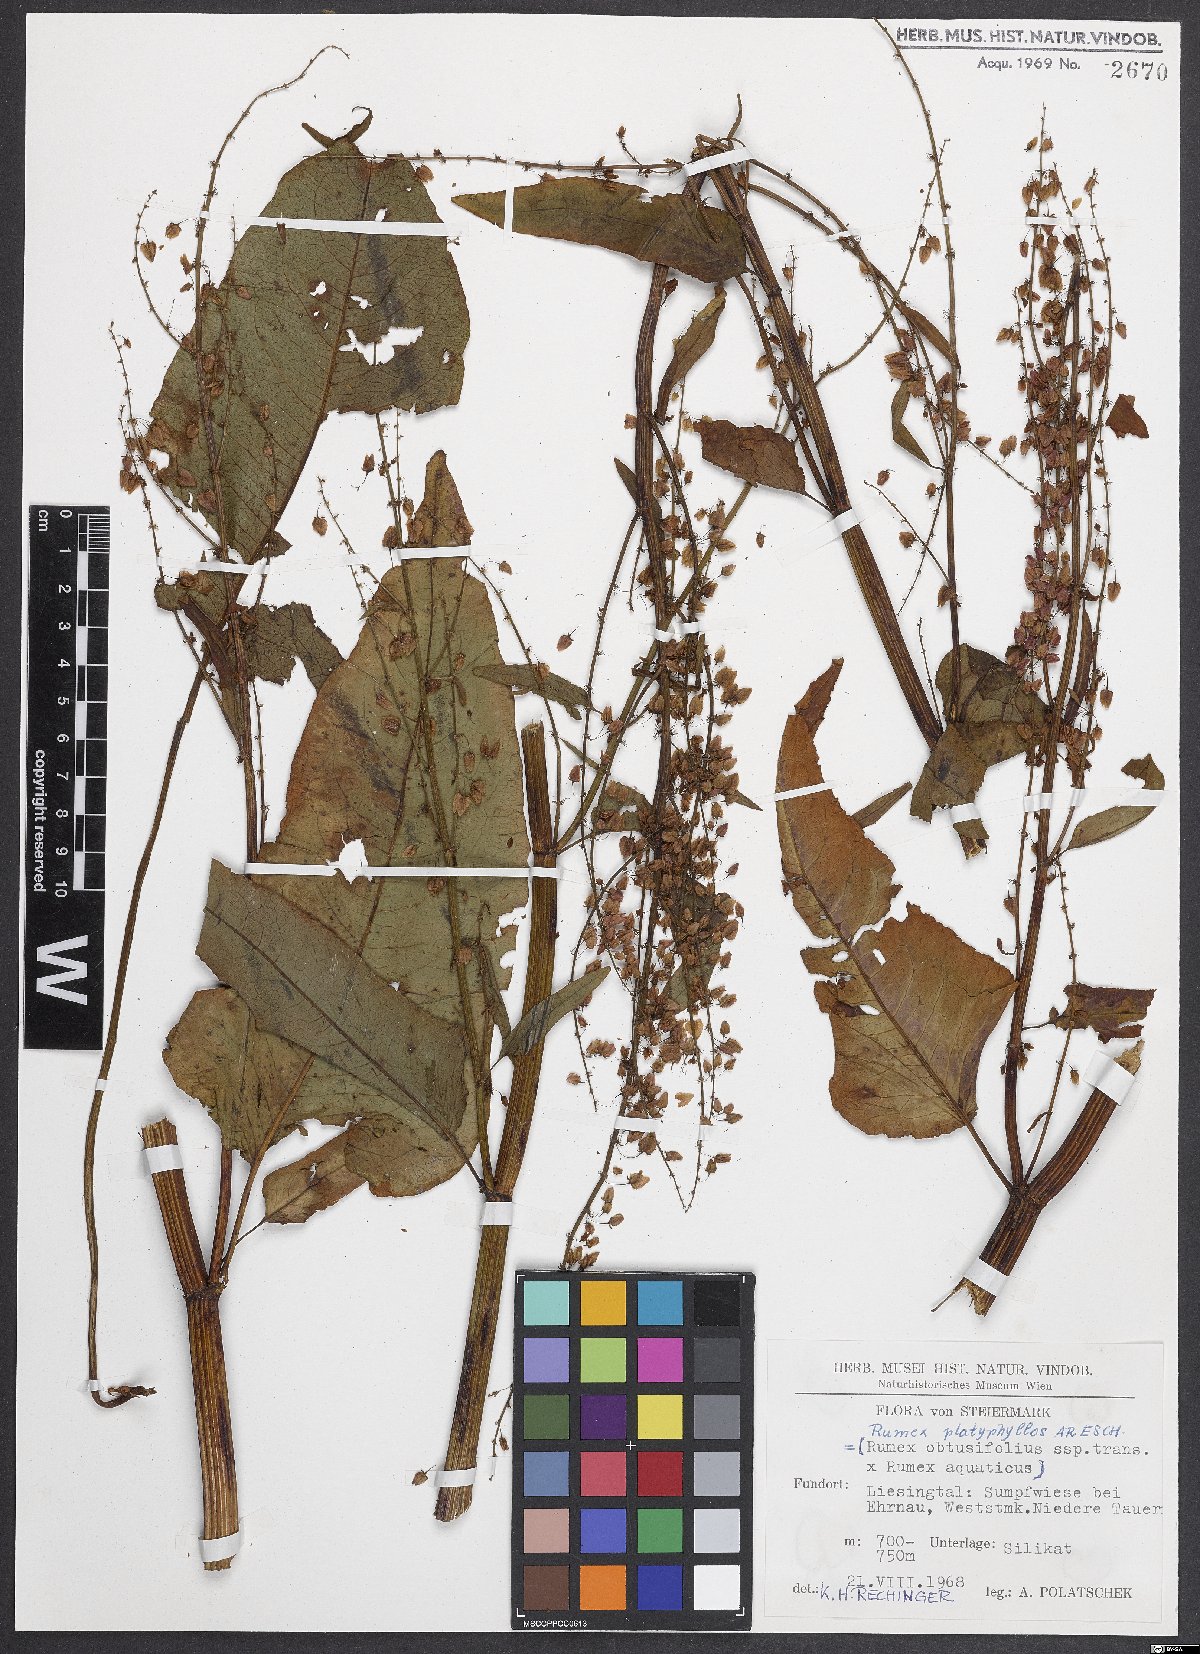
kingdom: Plantae
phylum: Tracheophyta
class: Magnoliopsida
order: Caryophyllales
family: Polygonaceae
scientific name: Polygonaceae
